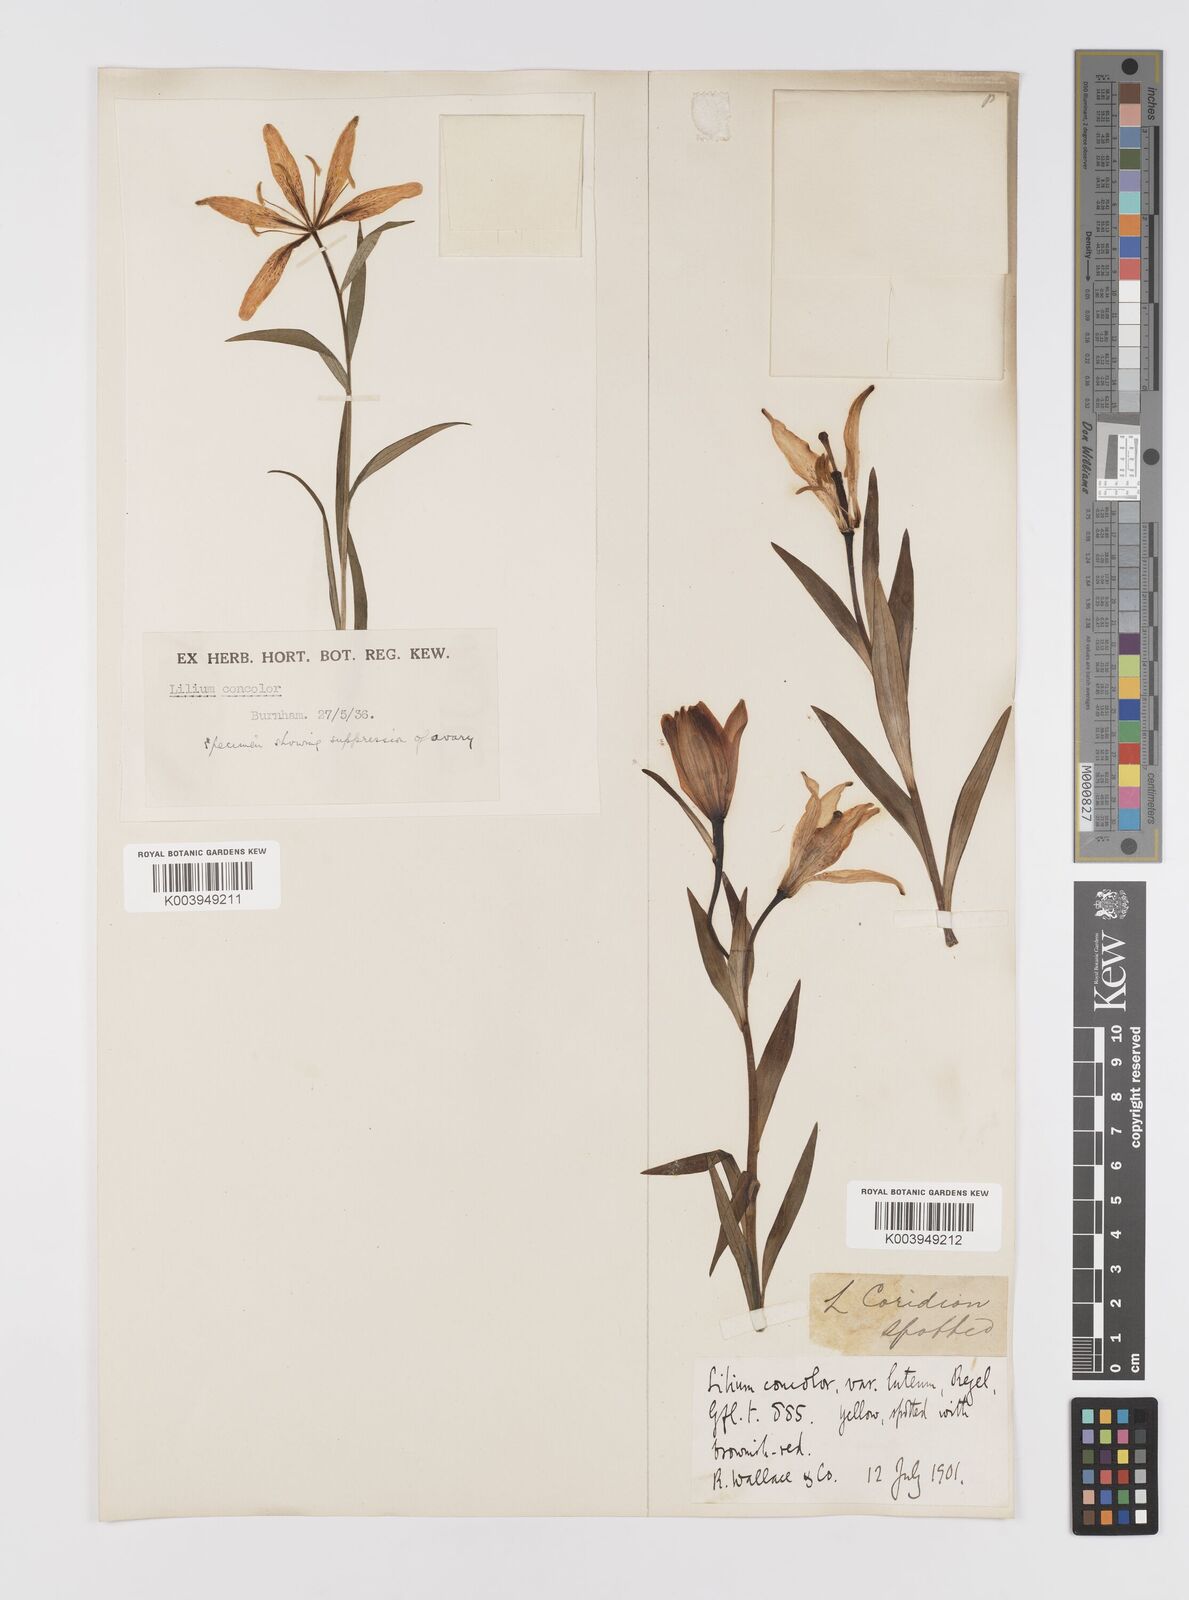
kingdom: Plantae
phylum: Tracheophyta
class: Liliopsida
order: Liliales
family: Liliaceae
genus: Lilium
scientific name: Lilium concolor
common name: Morning-star lily
